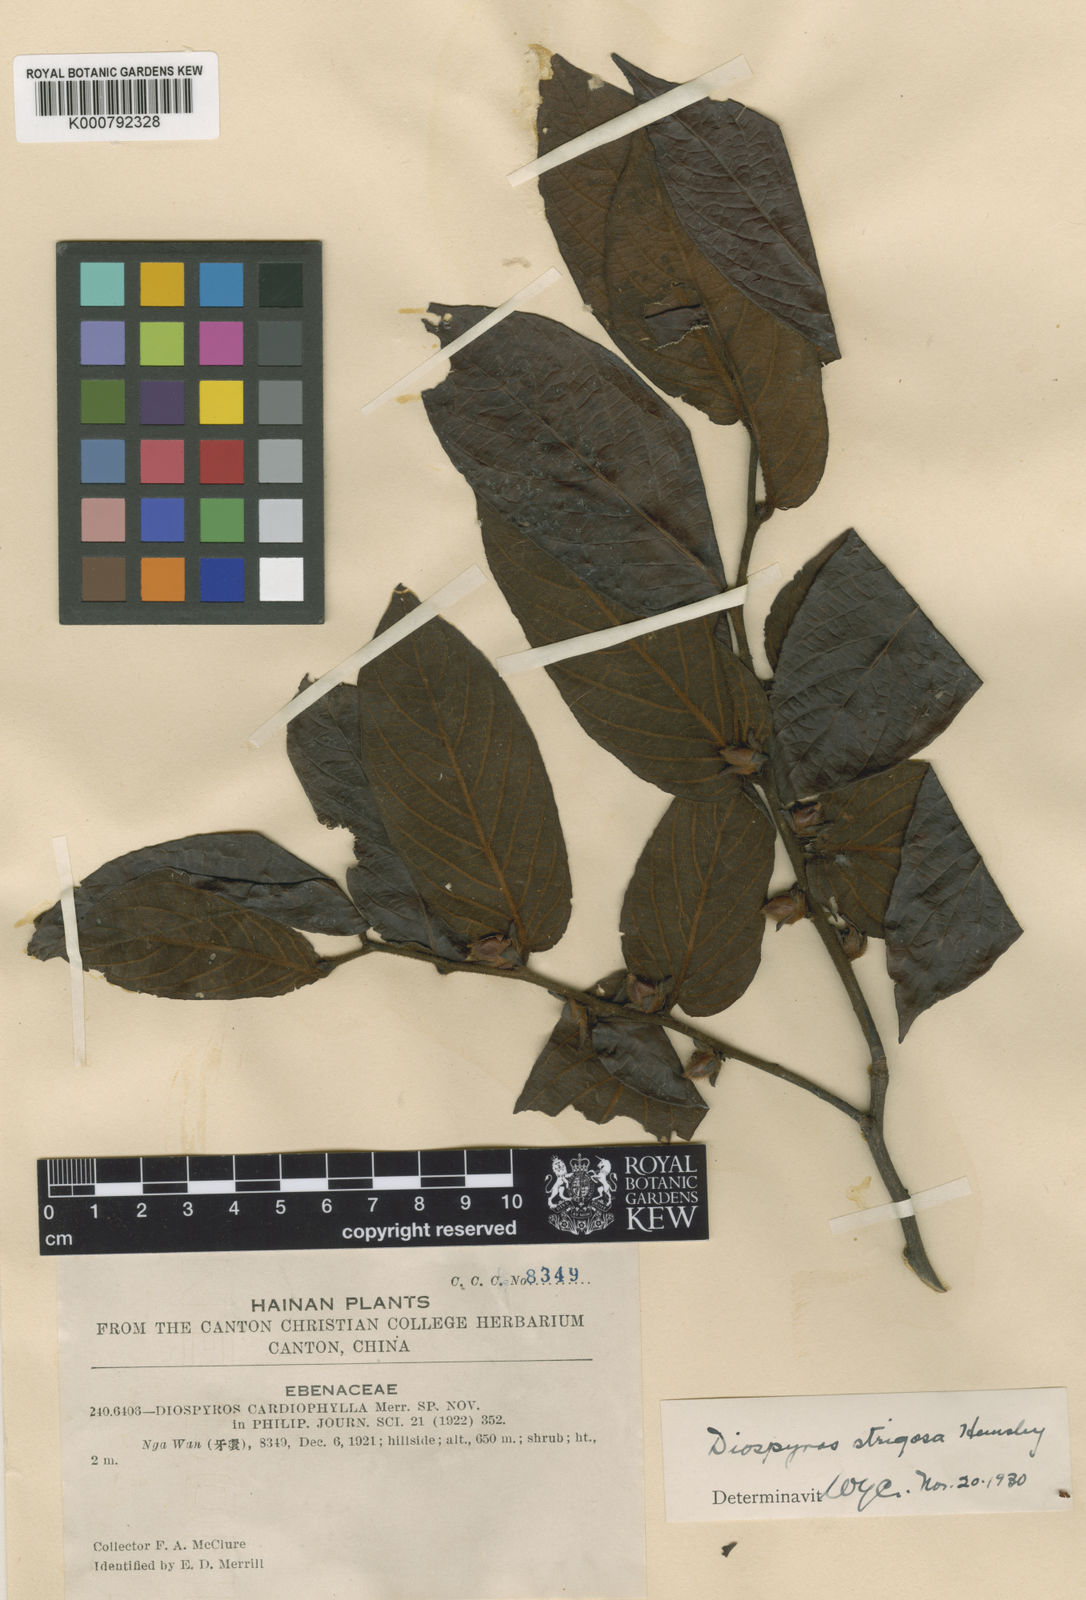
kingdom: Plantae
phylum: Tracheophyta
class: Magnoliopsida
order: Ericales
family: Ebenaceae
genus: Diospyros
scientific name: Diospyros strigosa
